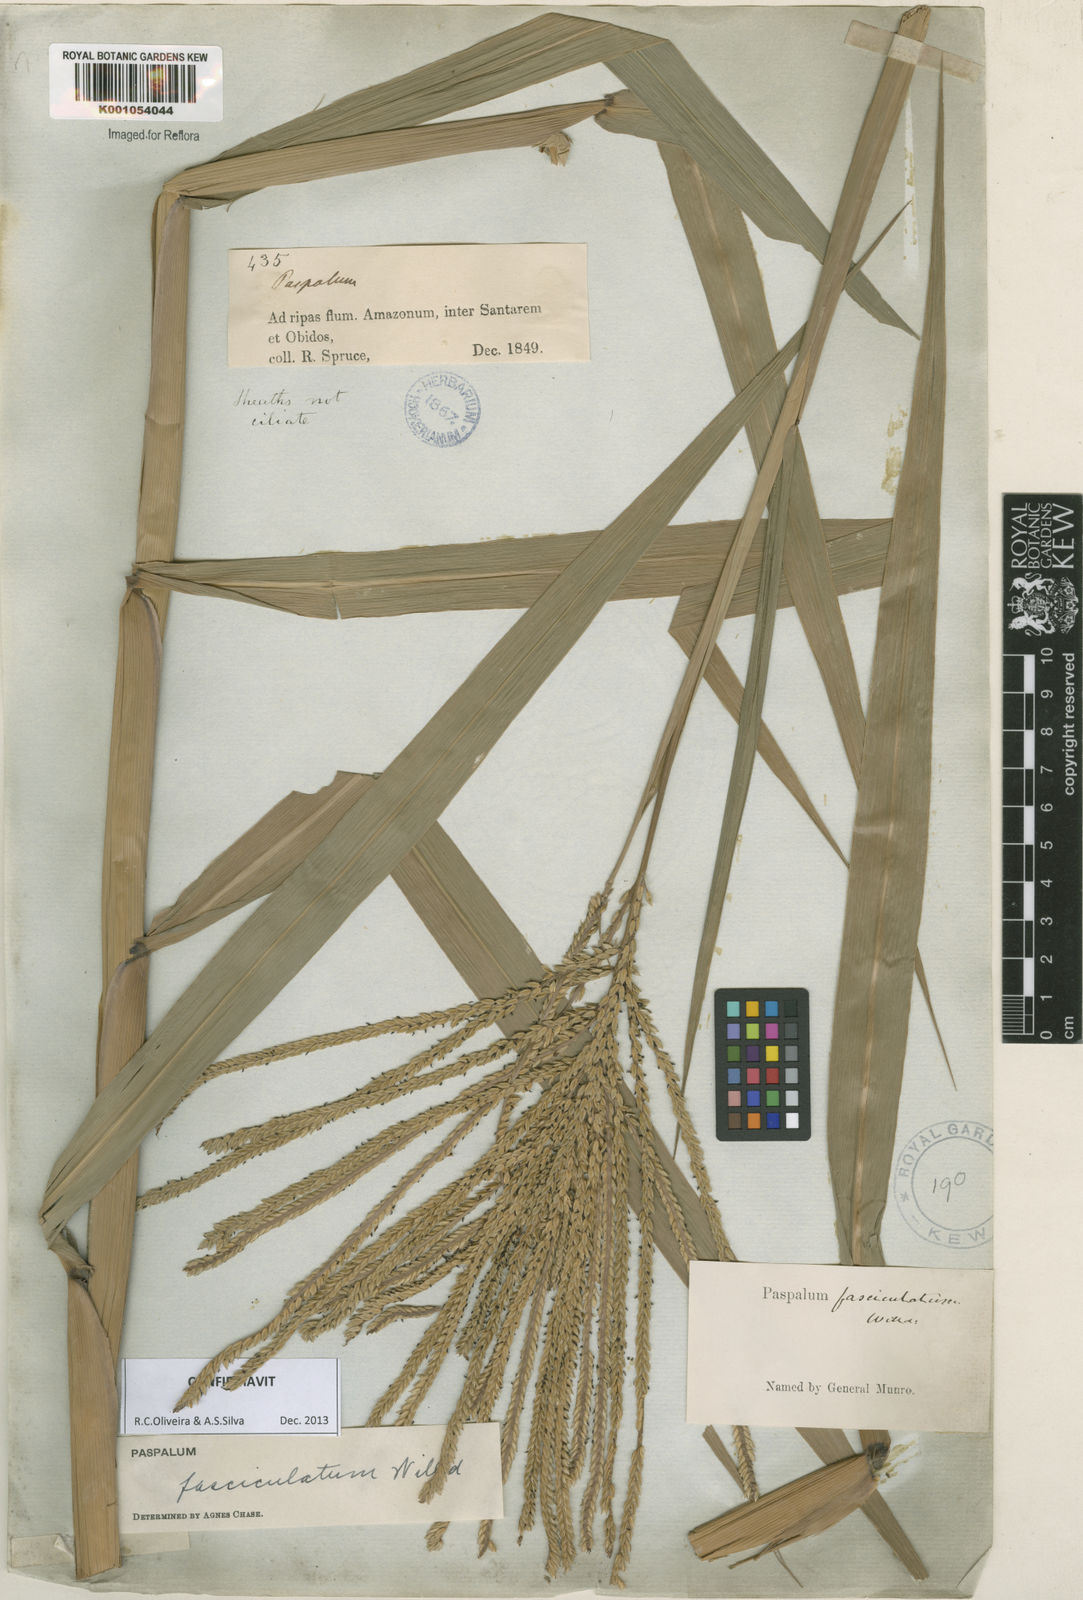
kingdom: Plantae
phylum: Tracheophyta
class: Liliopsida
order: Poales
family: Poaceae
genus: Paspalum
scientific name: Paspalum
